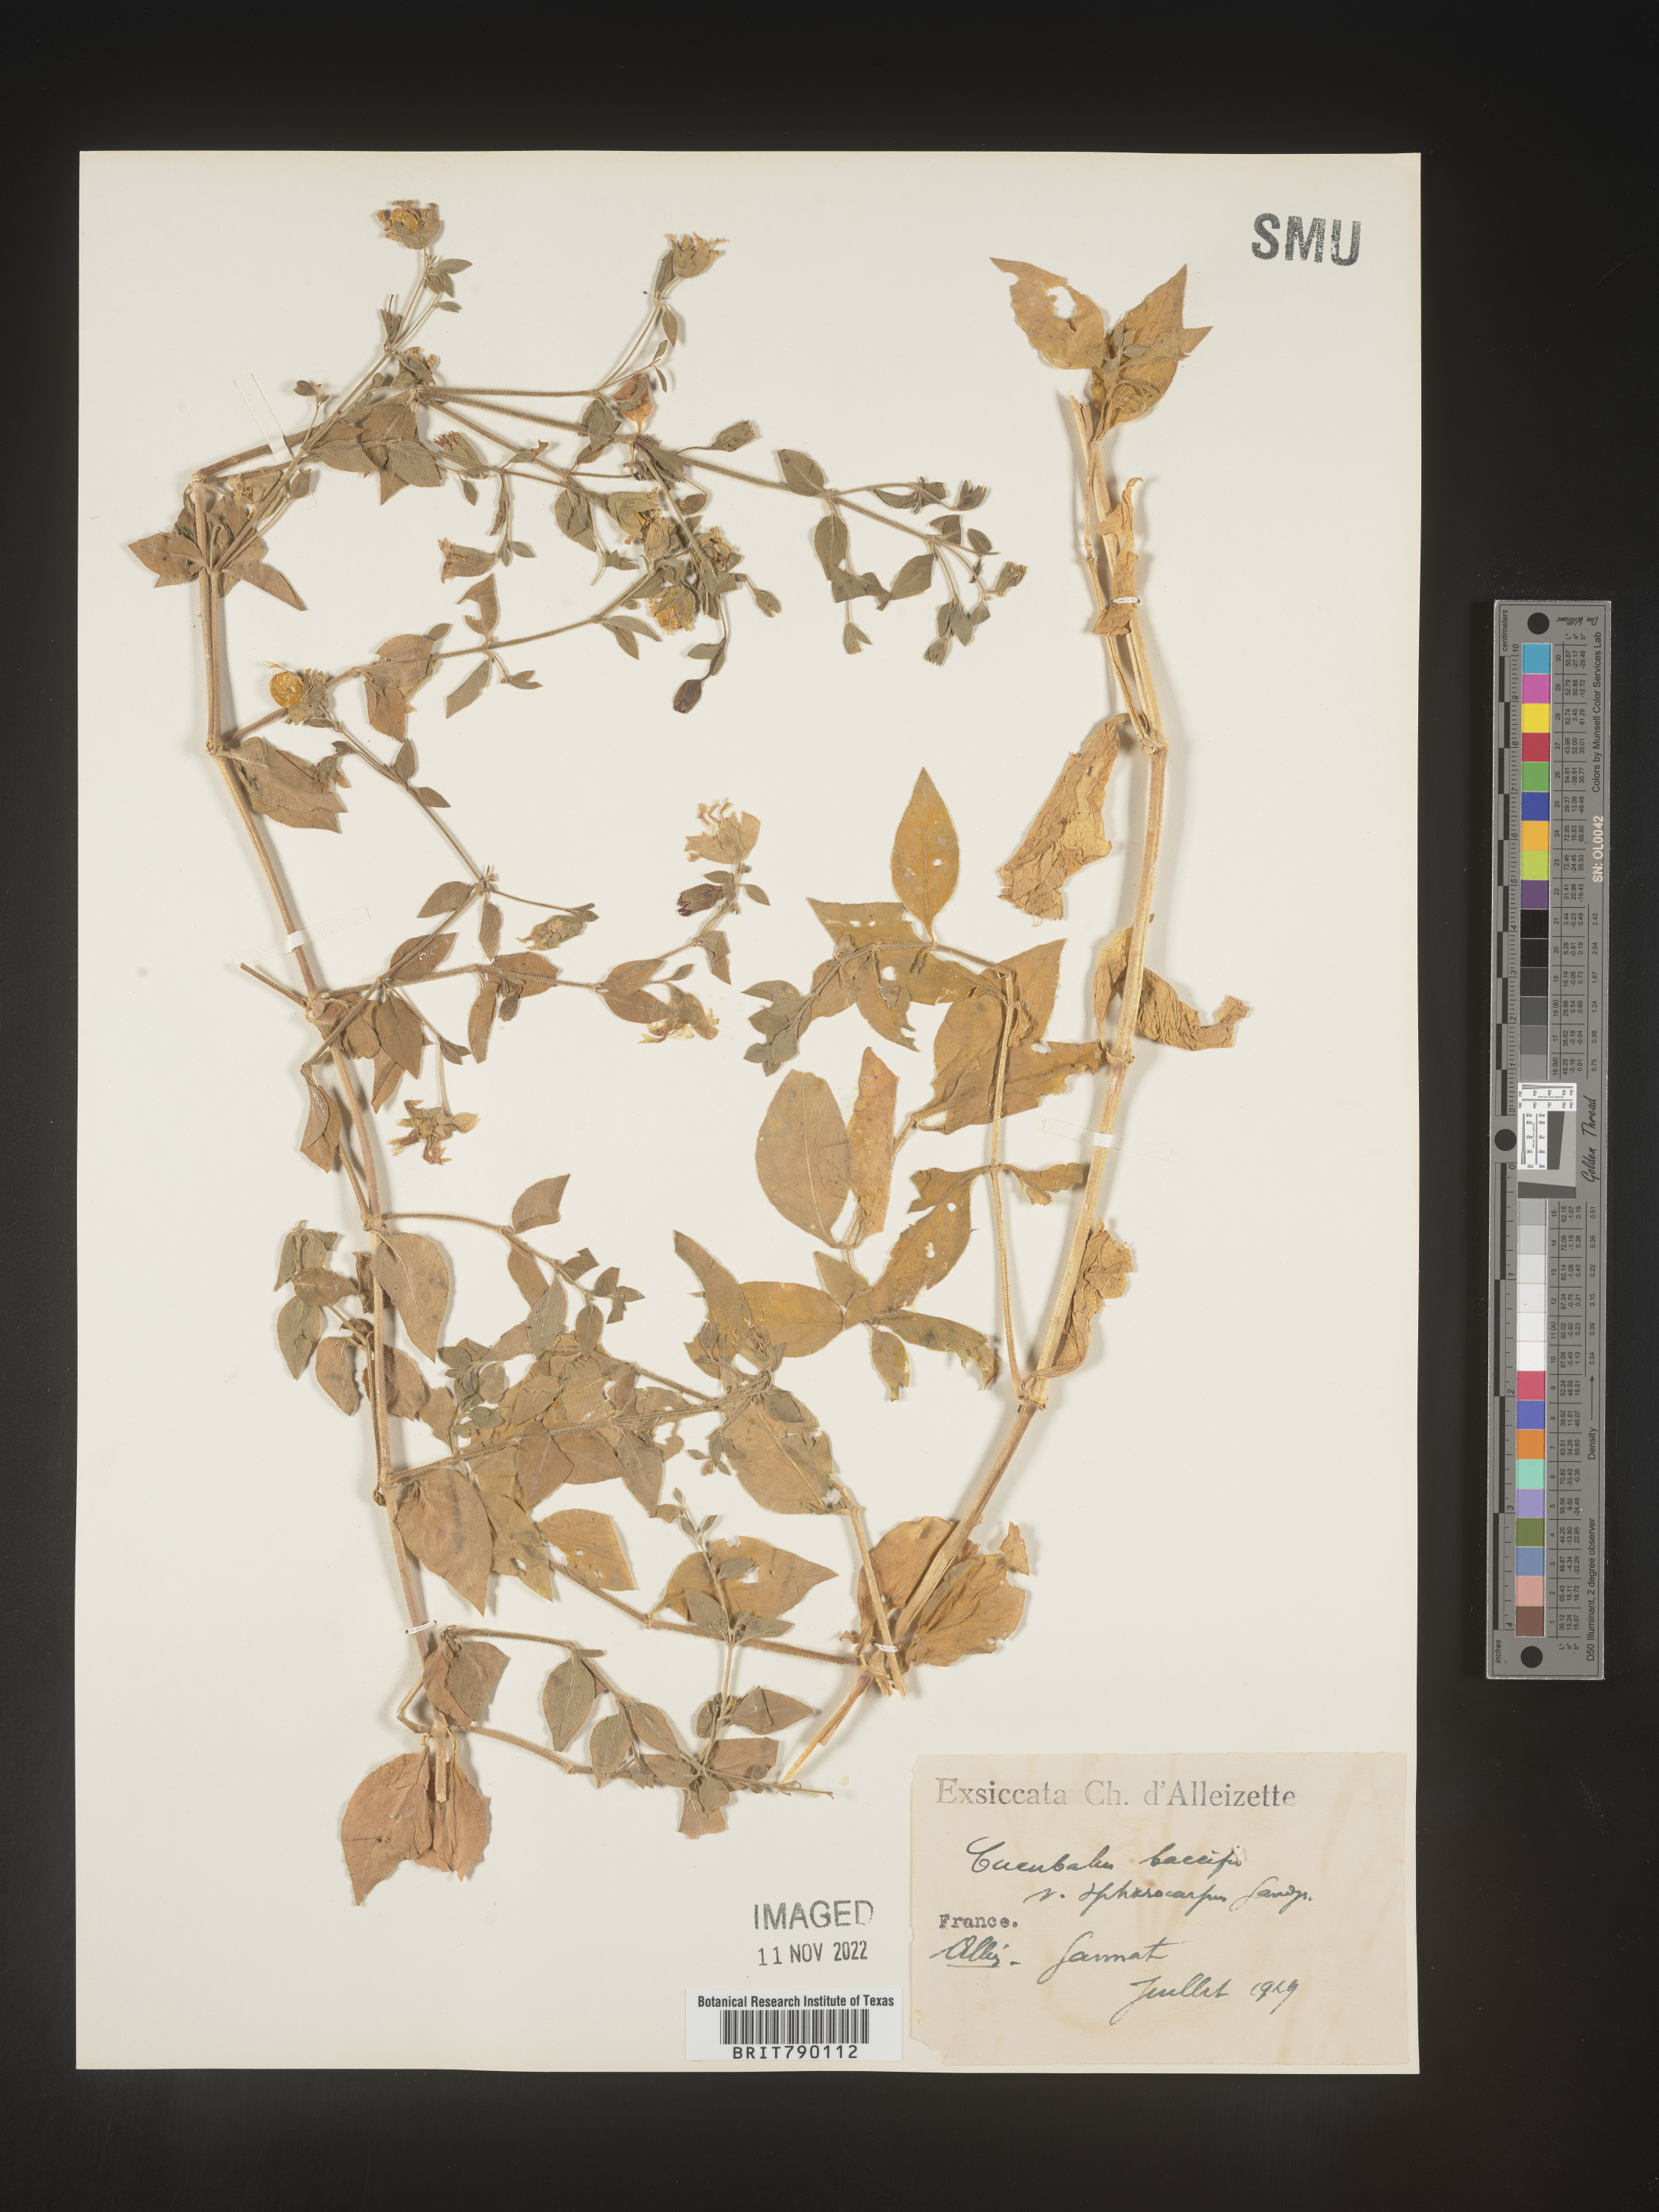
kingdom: Animalia
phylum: Cnidaria
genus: Cucubalus
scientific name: Cucubalus
